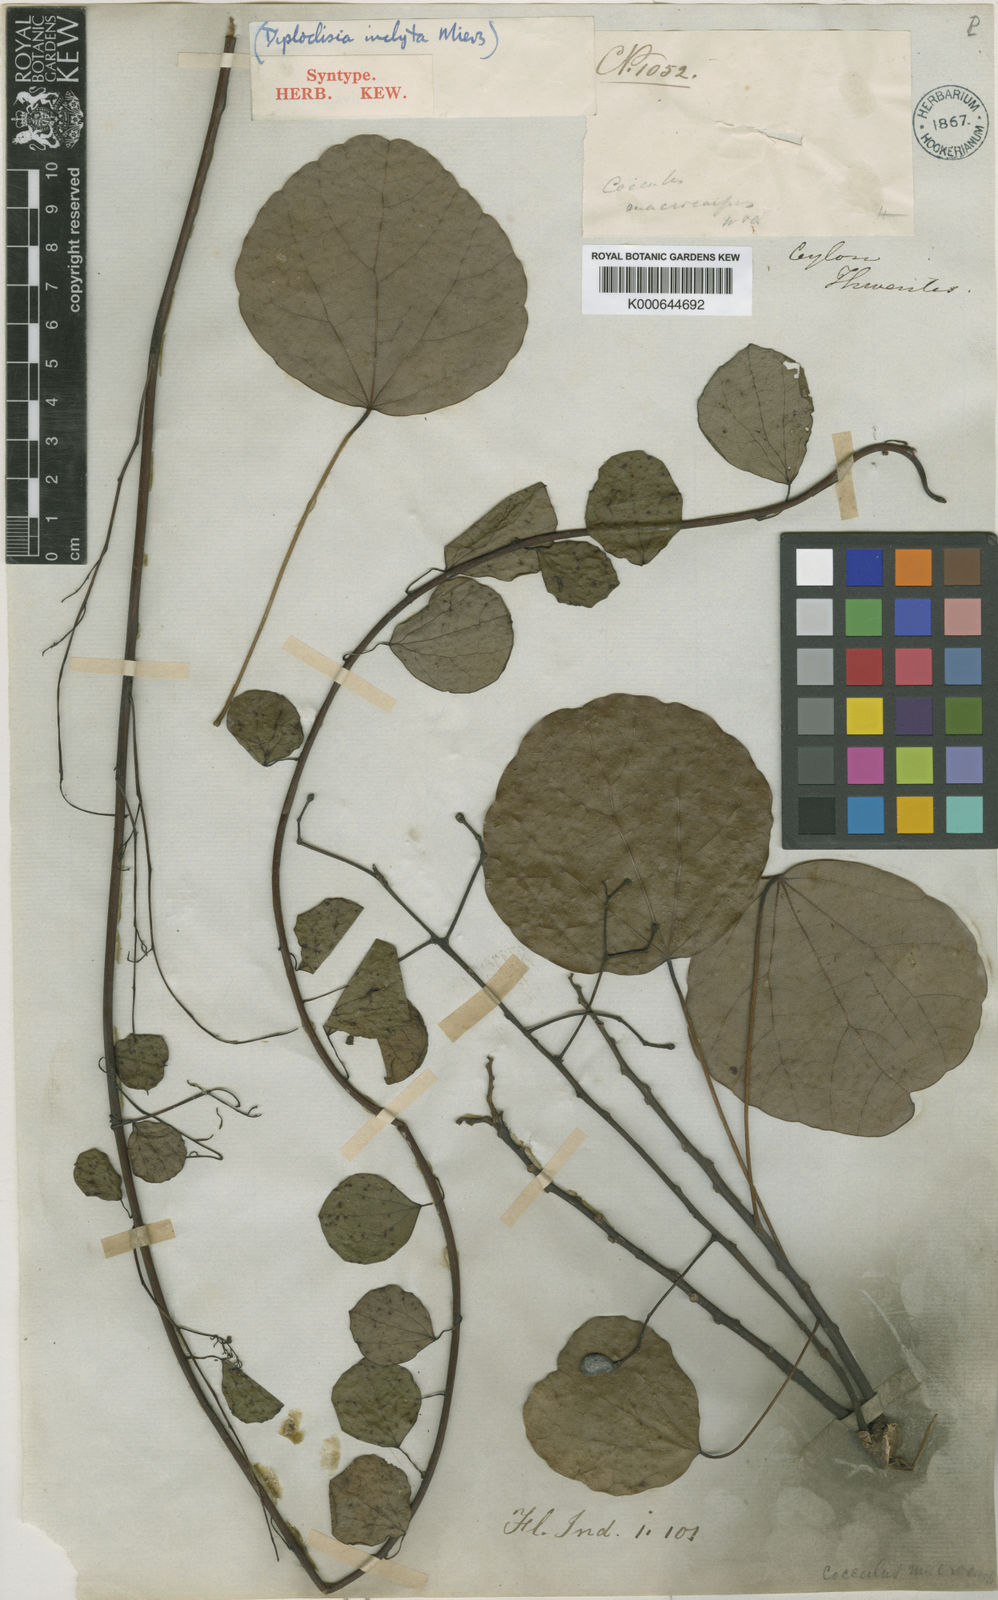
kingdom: Plantae
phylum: Tracheophyta
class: Magnoliopsida
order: Ranunculales
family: Menispermaceae
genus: Diploclisia
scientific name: Diploclisia glaucescens
